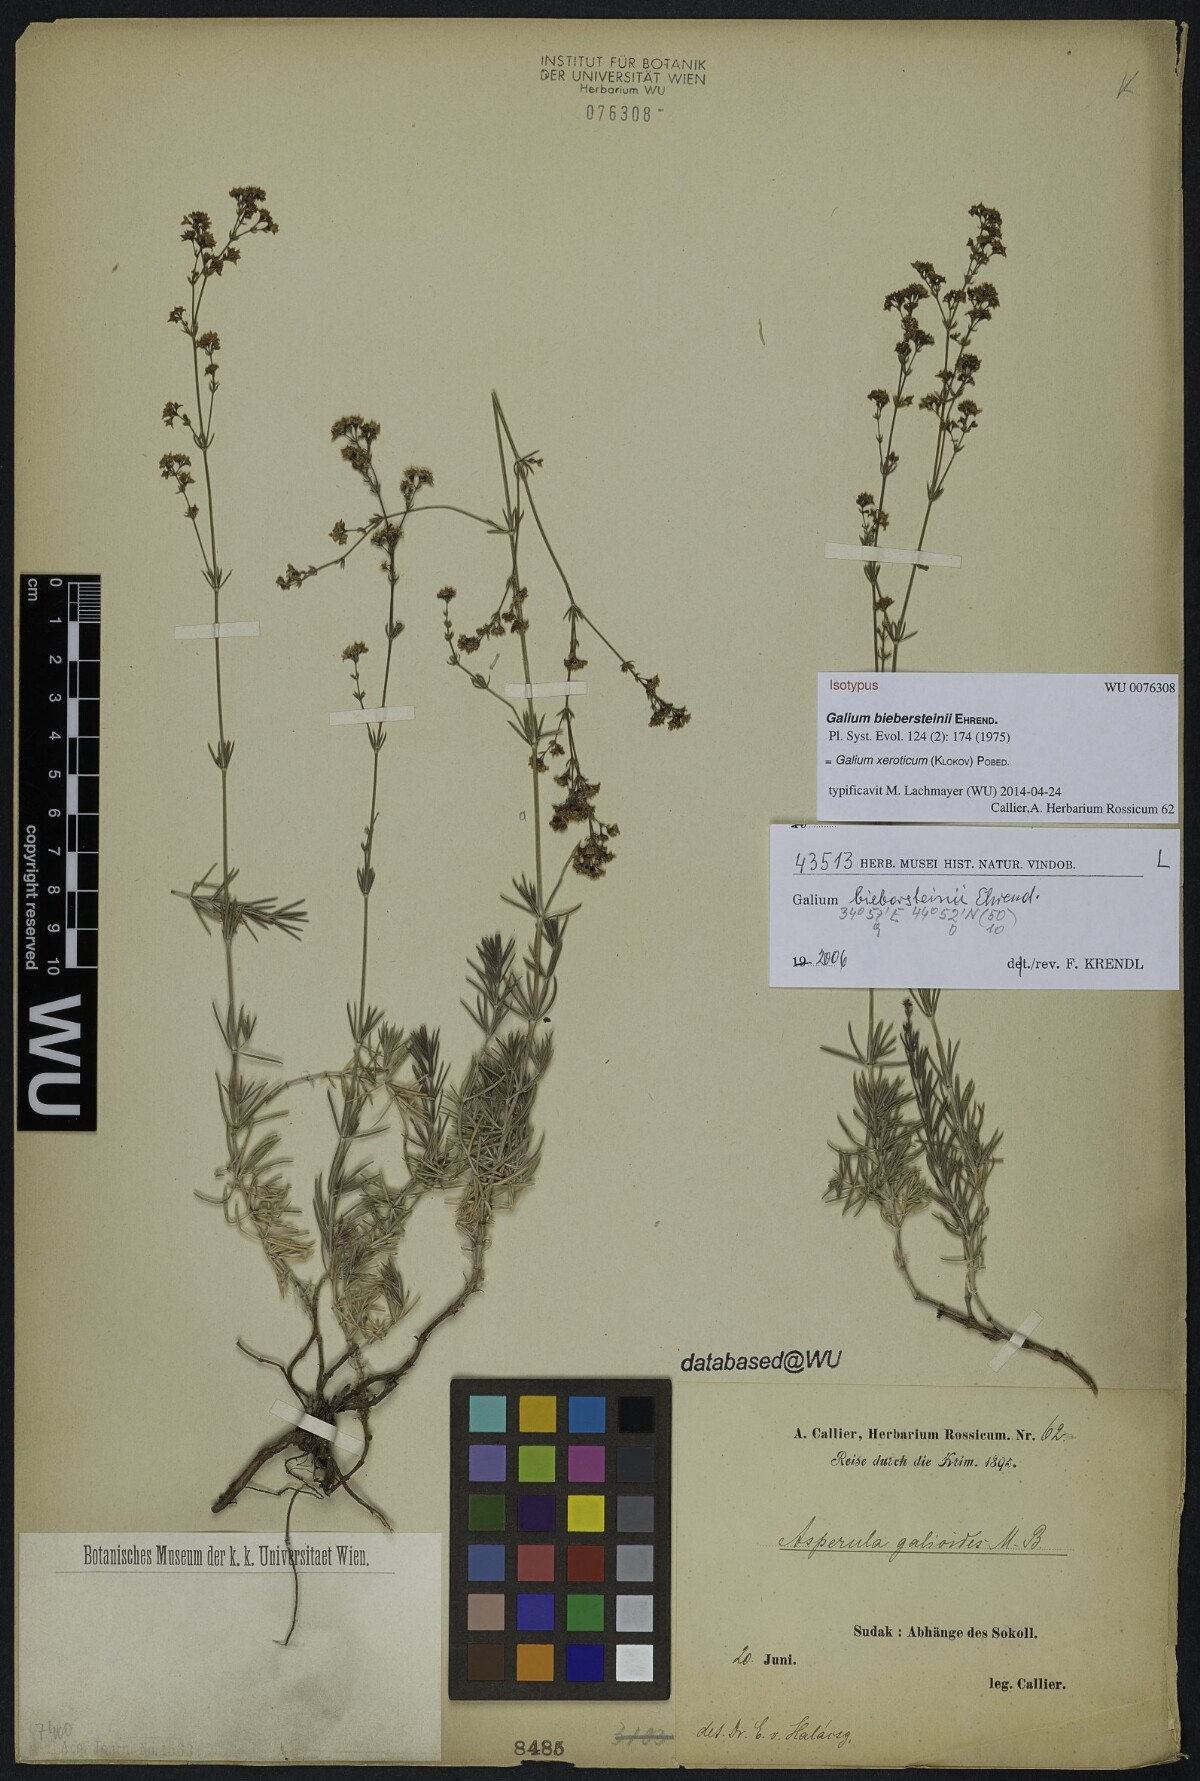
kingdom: Plantae
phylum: Tracheophyta
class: Magnoliopsida
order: Gentianales
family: Rubiaceae
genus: Galium
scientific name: Galium xeroticum
